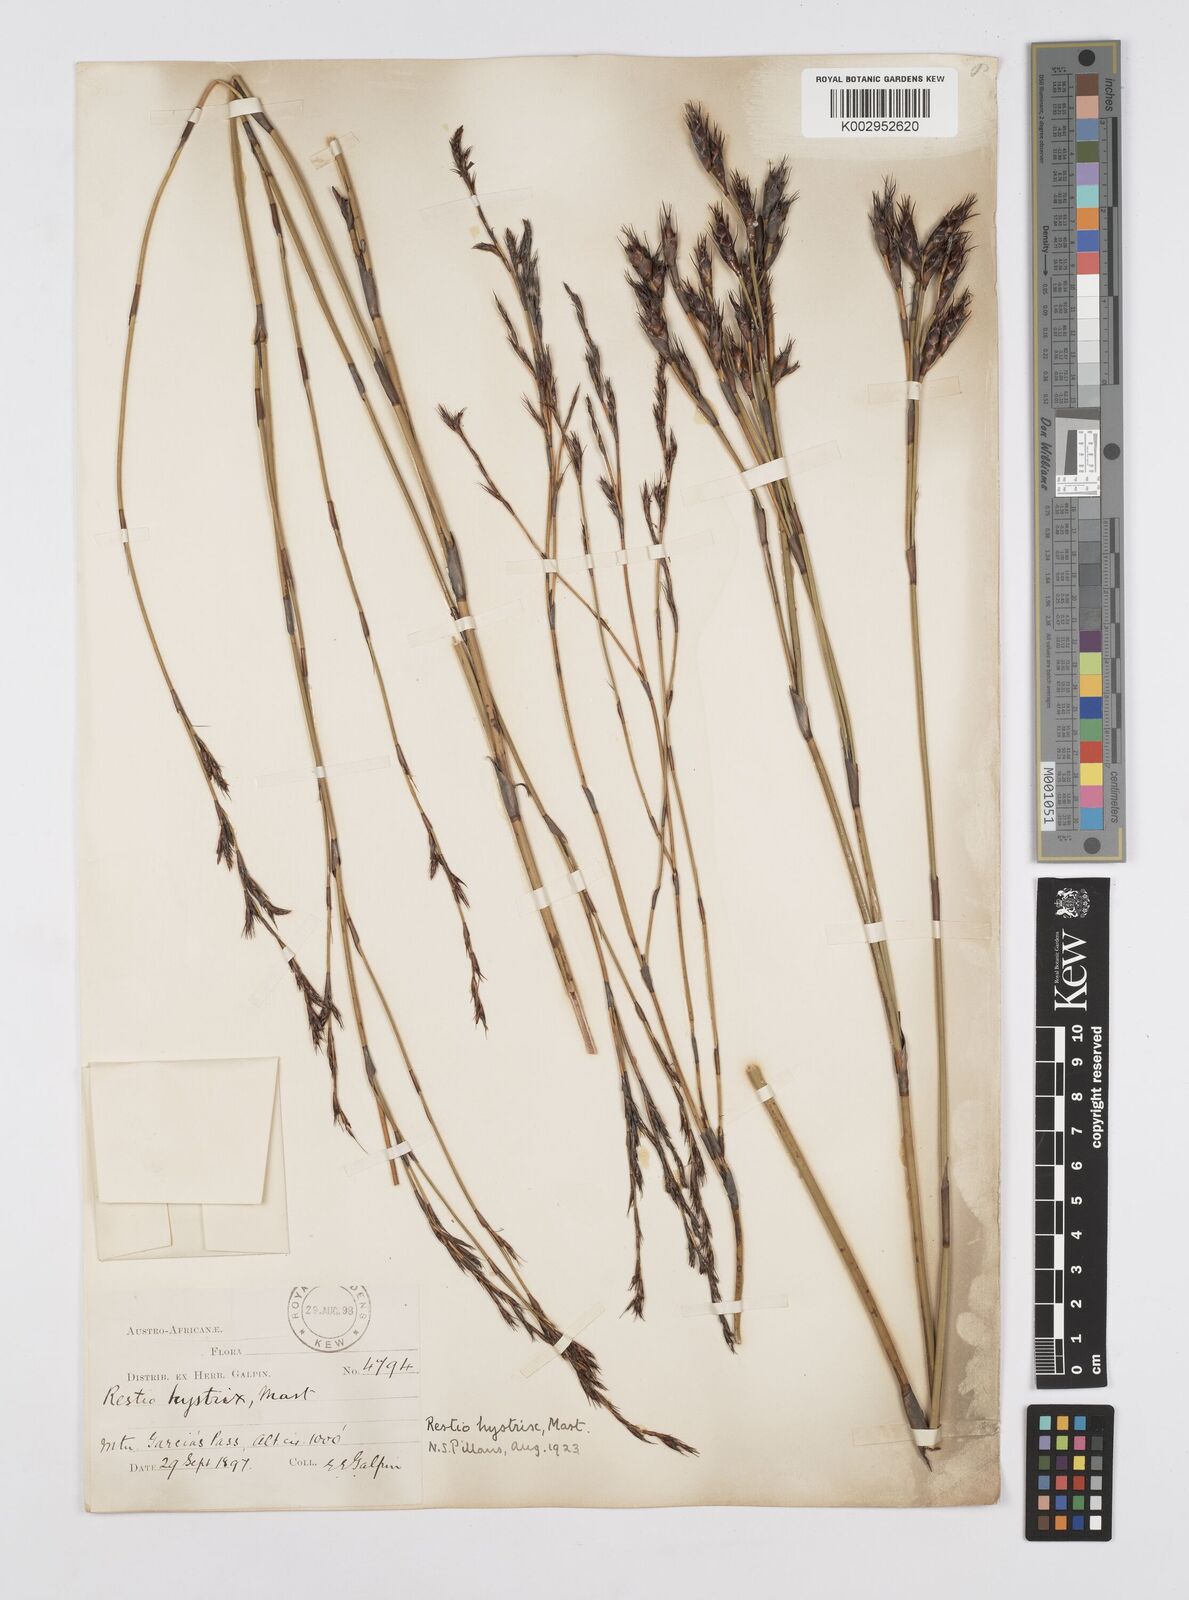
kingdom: Plantae
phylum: Tracheophyta
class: Liliopsida
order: Poales
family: Restionaceae
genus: Restio
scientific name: Restio hystrix
